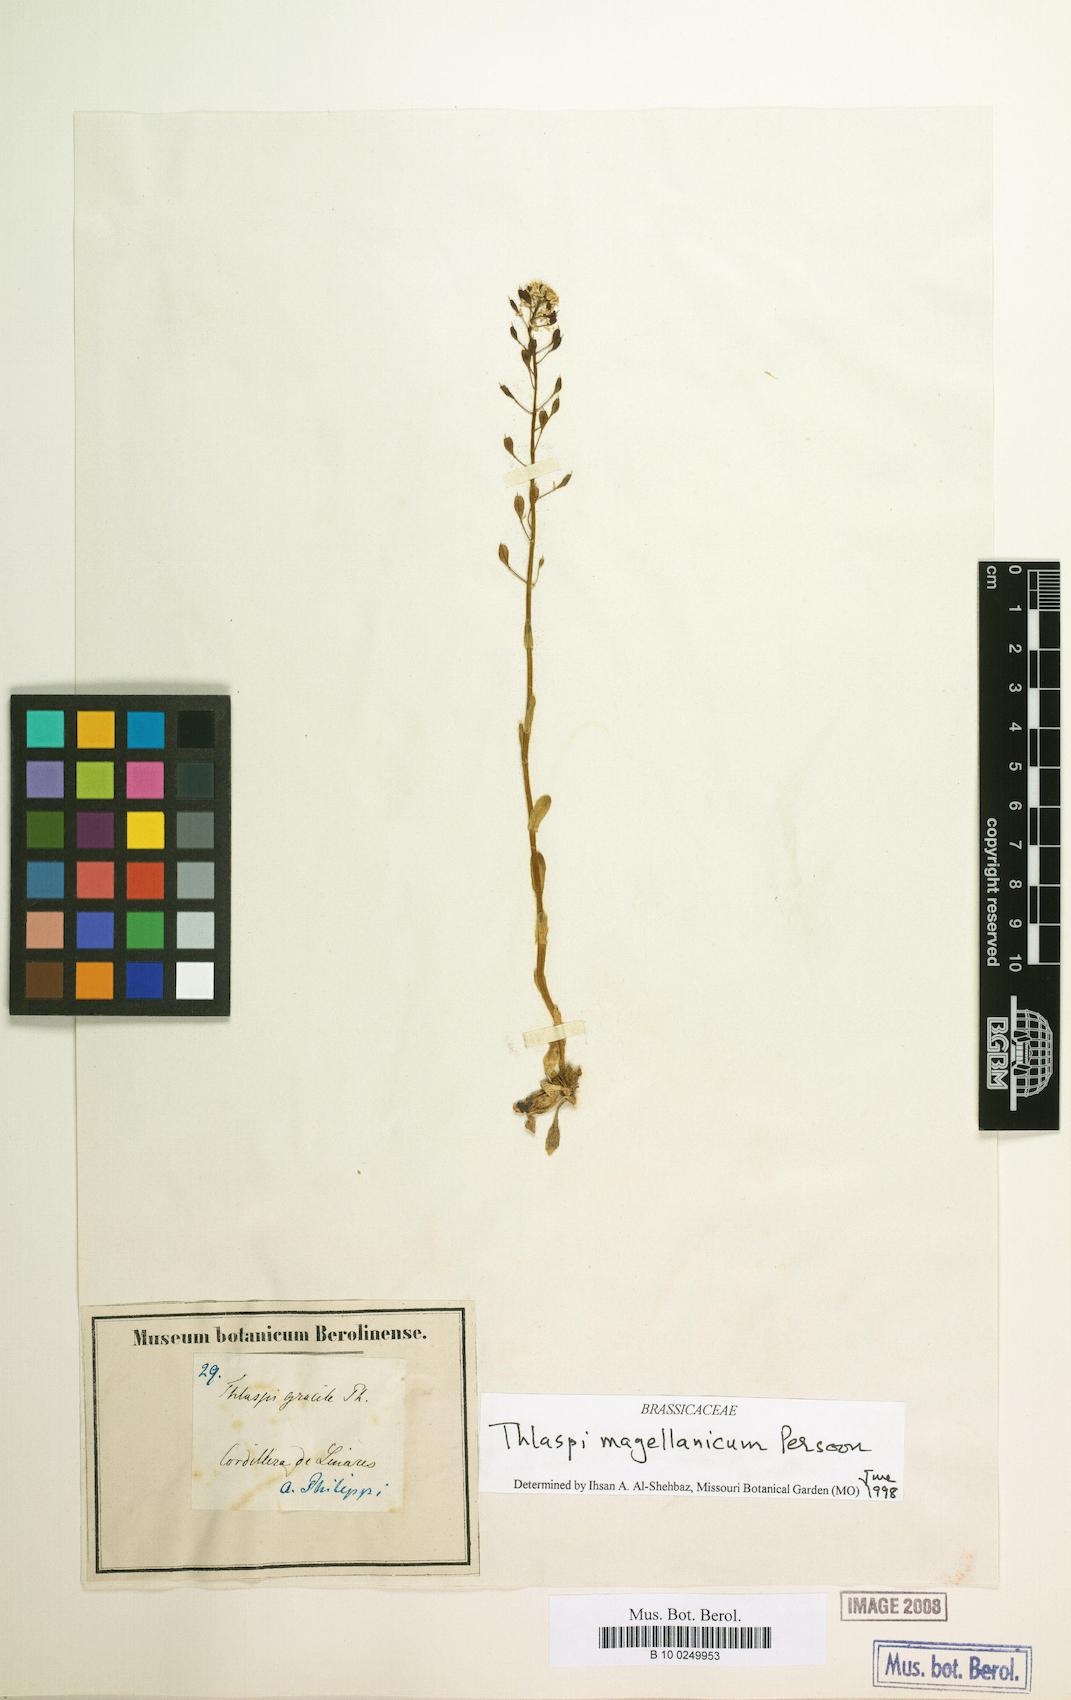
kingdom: Plantae
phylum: Tracheophyta
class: Magnoliopsida
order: Brassicales
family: Brassicaceae
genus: Noccaea
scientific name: Noccaea magellanica
